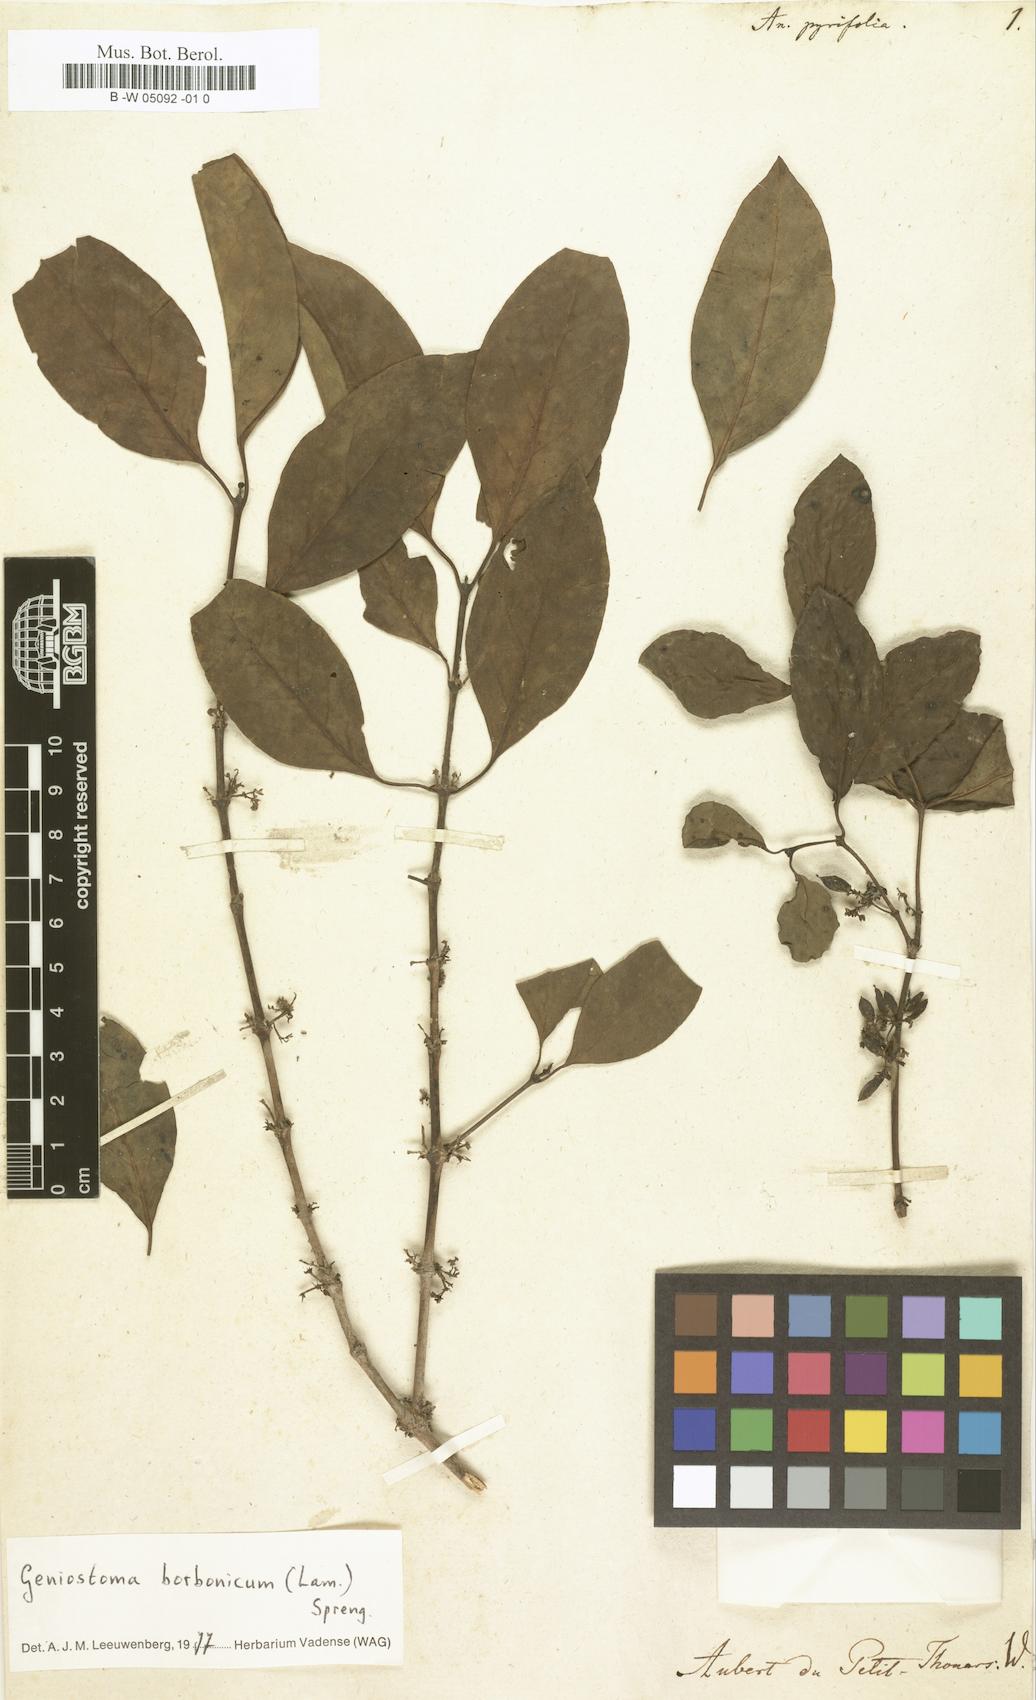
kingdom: Plantae
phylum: Tracheophyta
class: Magnoliopsida
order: Gentianales
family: Loganiaceae
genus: Anassera
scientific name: Anassera
